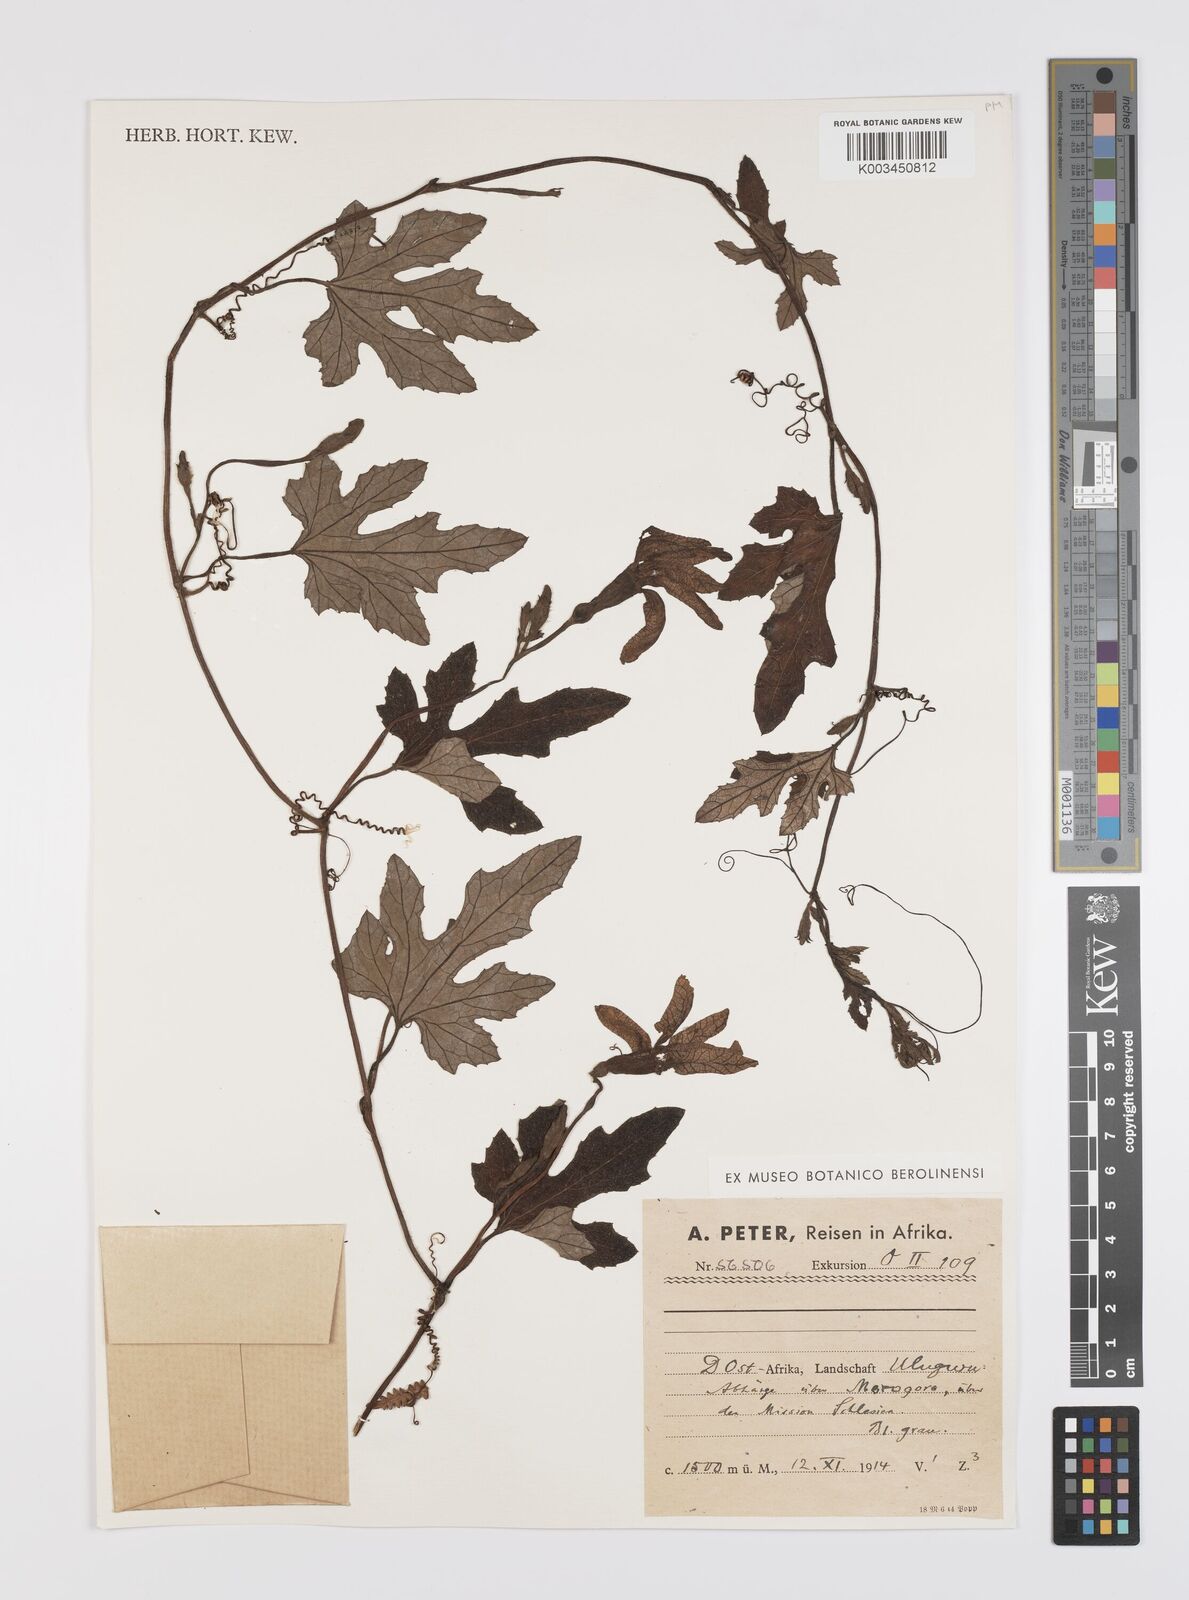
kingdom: Plantae
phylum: Tracheophyta
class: Magnoliopsida
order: Cucurbitales
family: Cucurbitaceae
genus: Lagenaria
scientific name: Lagenaria abyssinica
